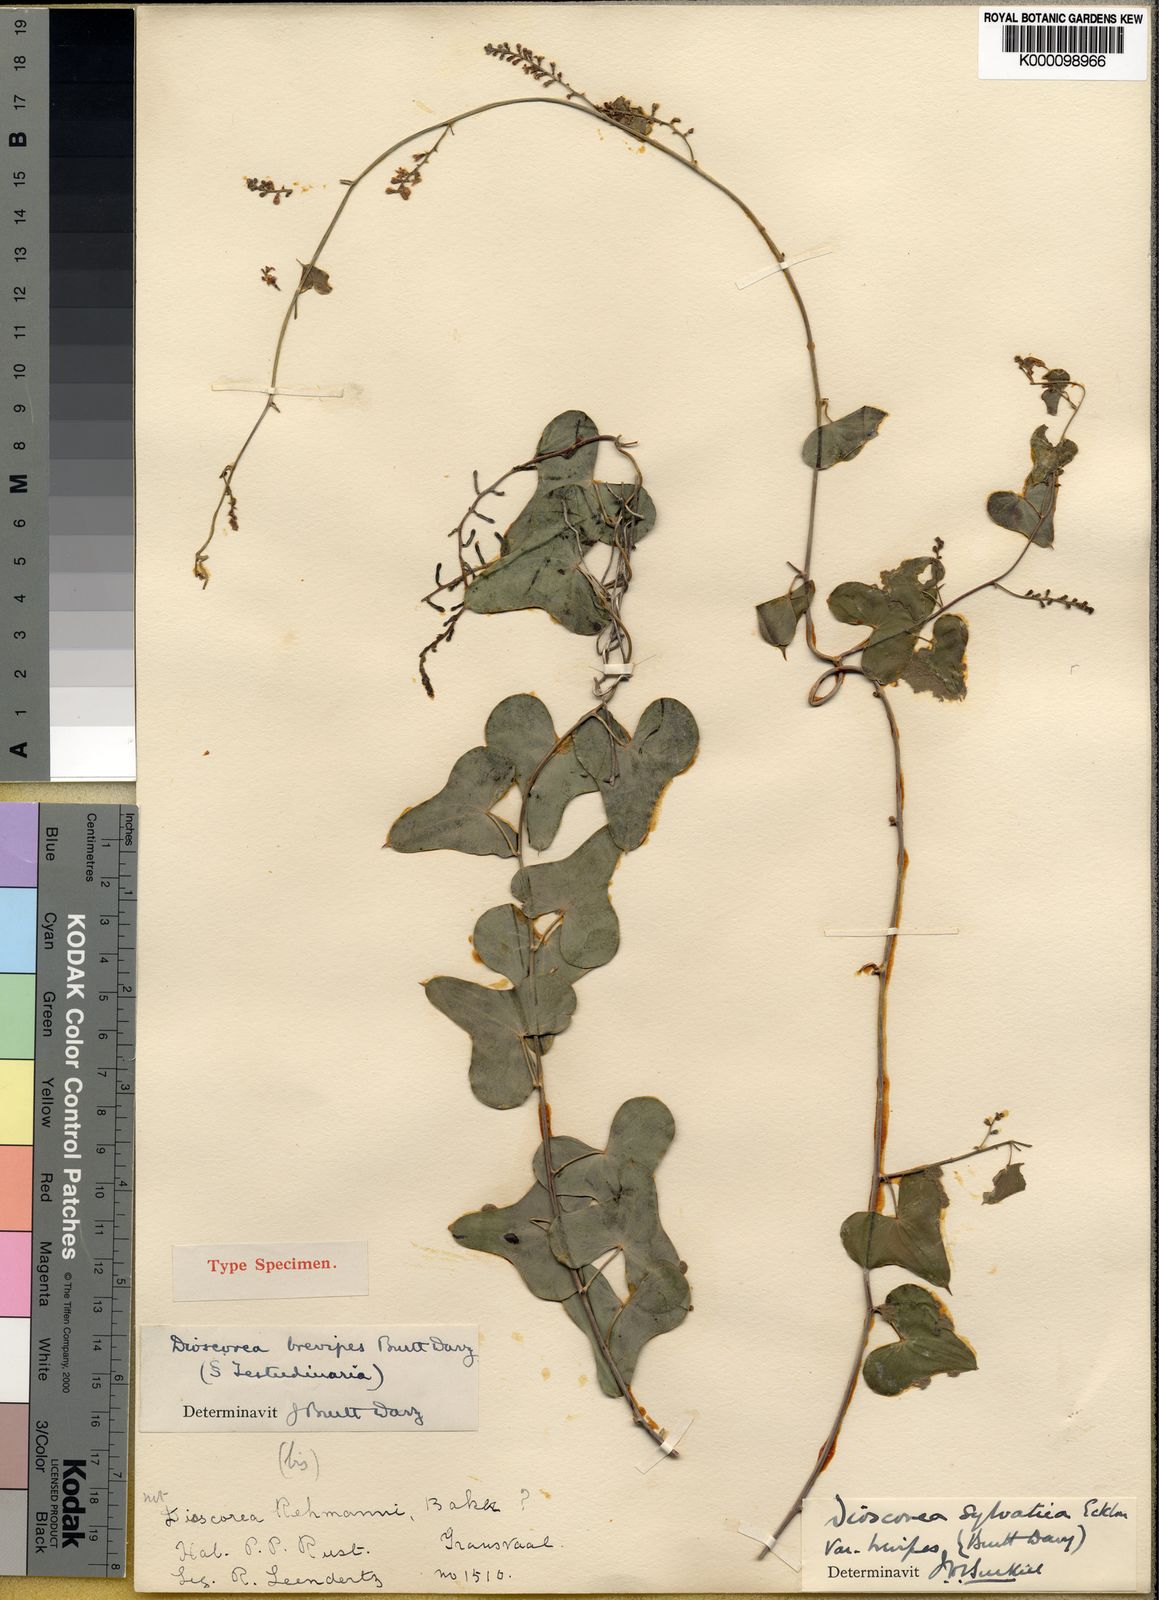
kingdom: Plantae
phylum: Tracheophyta
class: Liliopsida
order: Dioscoreales
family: Dioscoreaceae
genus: Dioscorea
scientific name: Dioscorea sylvatica
